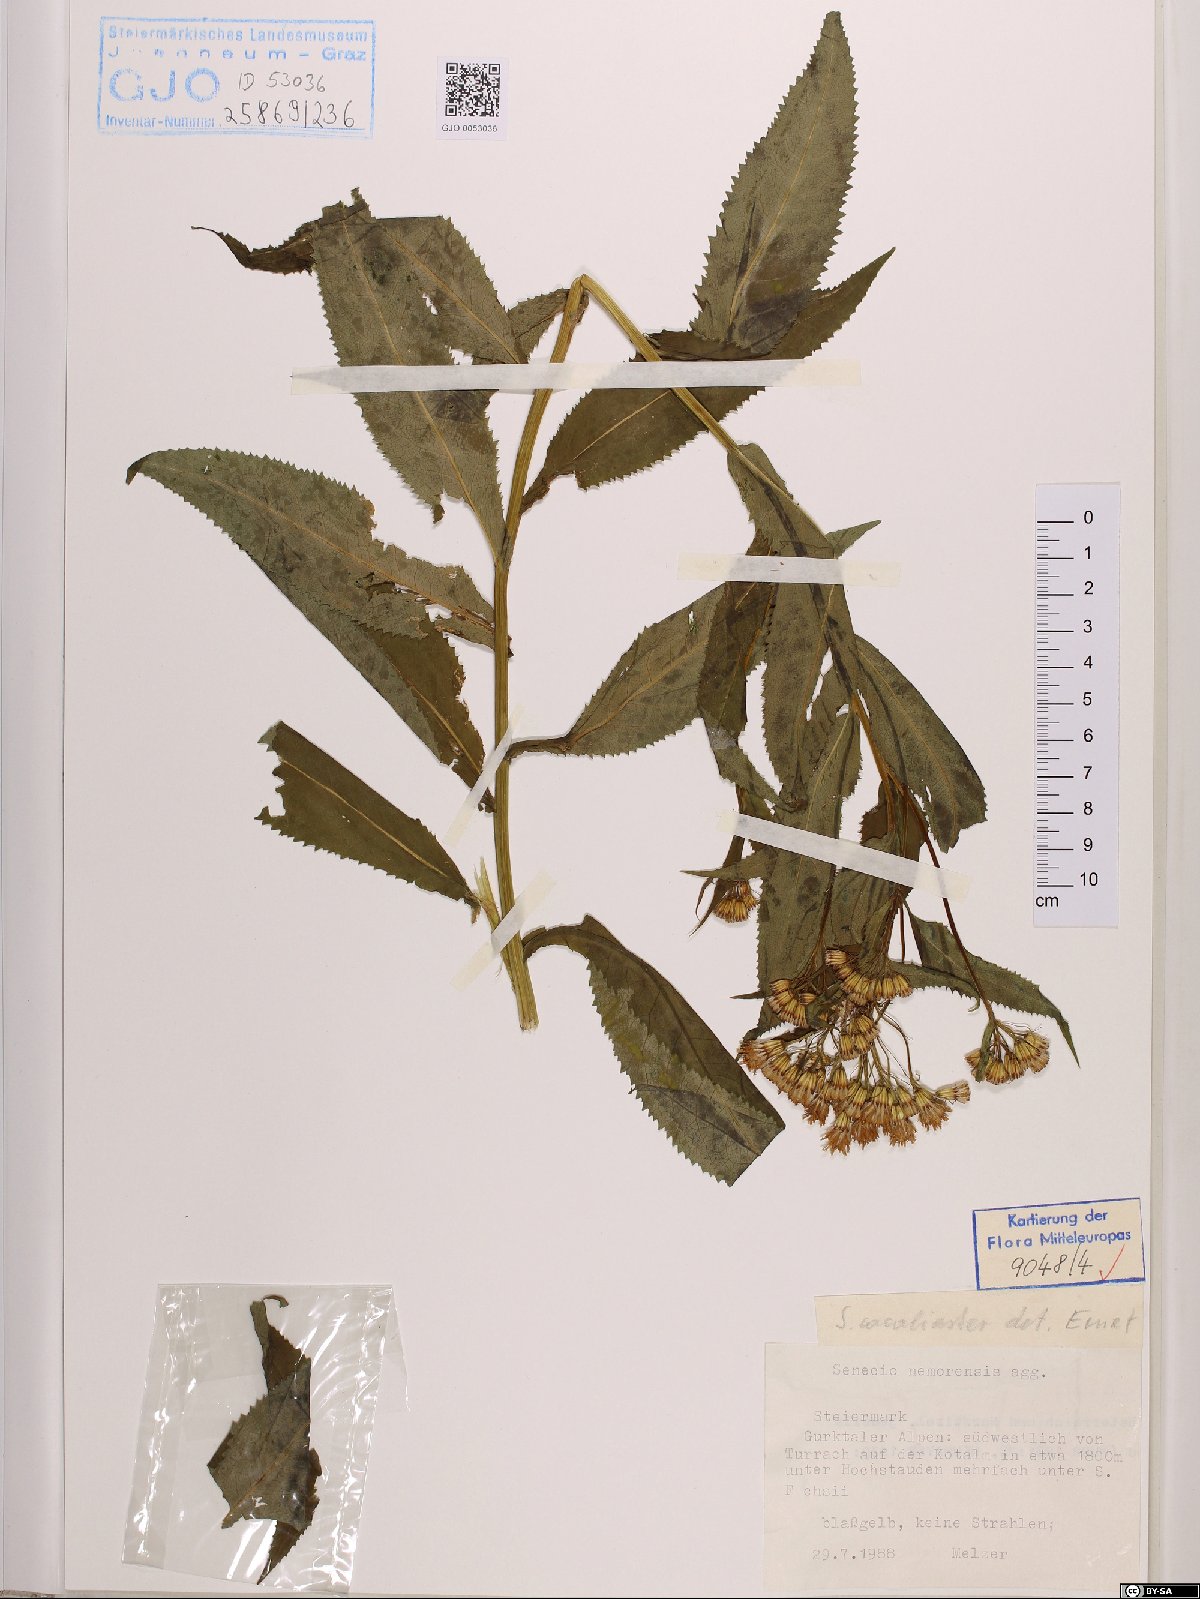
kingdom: Plantae
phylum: Tracheophyta
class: Magnoliopsida
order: Asterales
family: Asteraceae
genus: Senecio
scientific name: Senecio cacaliaster
